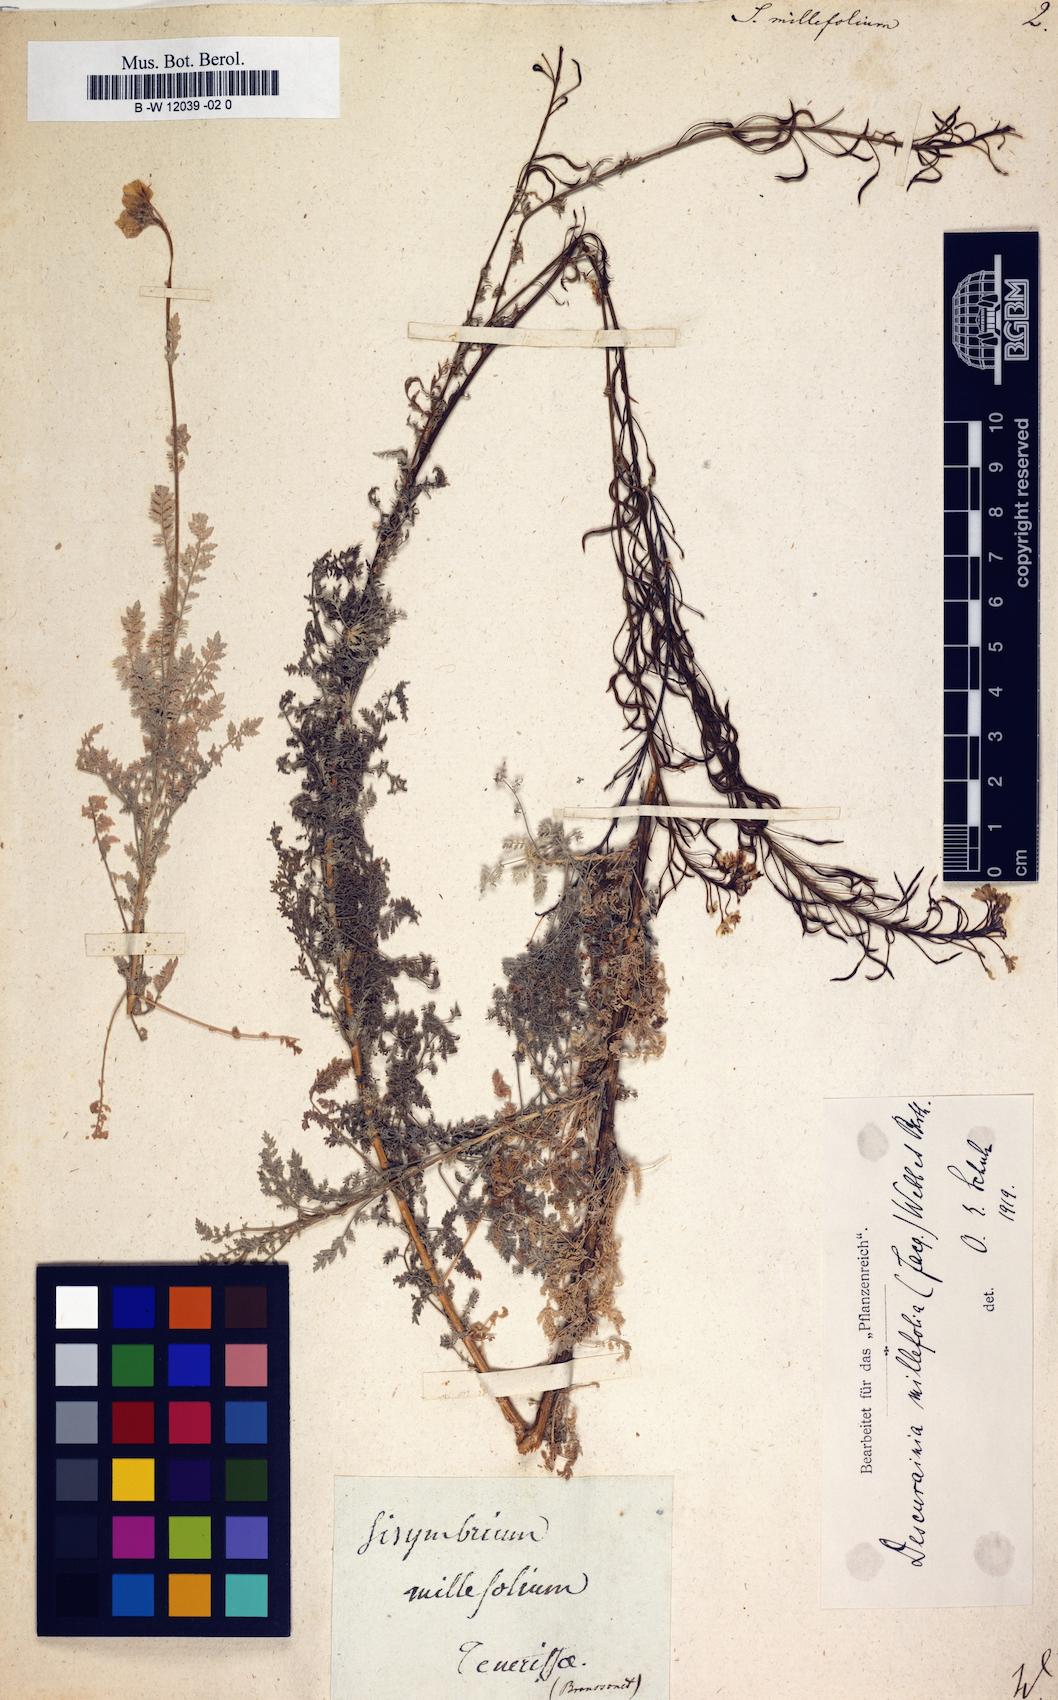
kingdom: Plantae
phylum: Tracheophyta
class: Magnoliopsida
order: Brassicales
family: Brassicaceae
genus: Hesperis
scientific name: Hesperis millefolia
